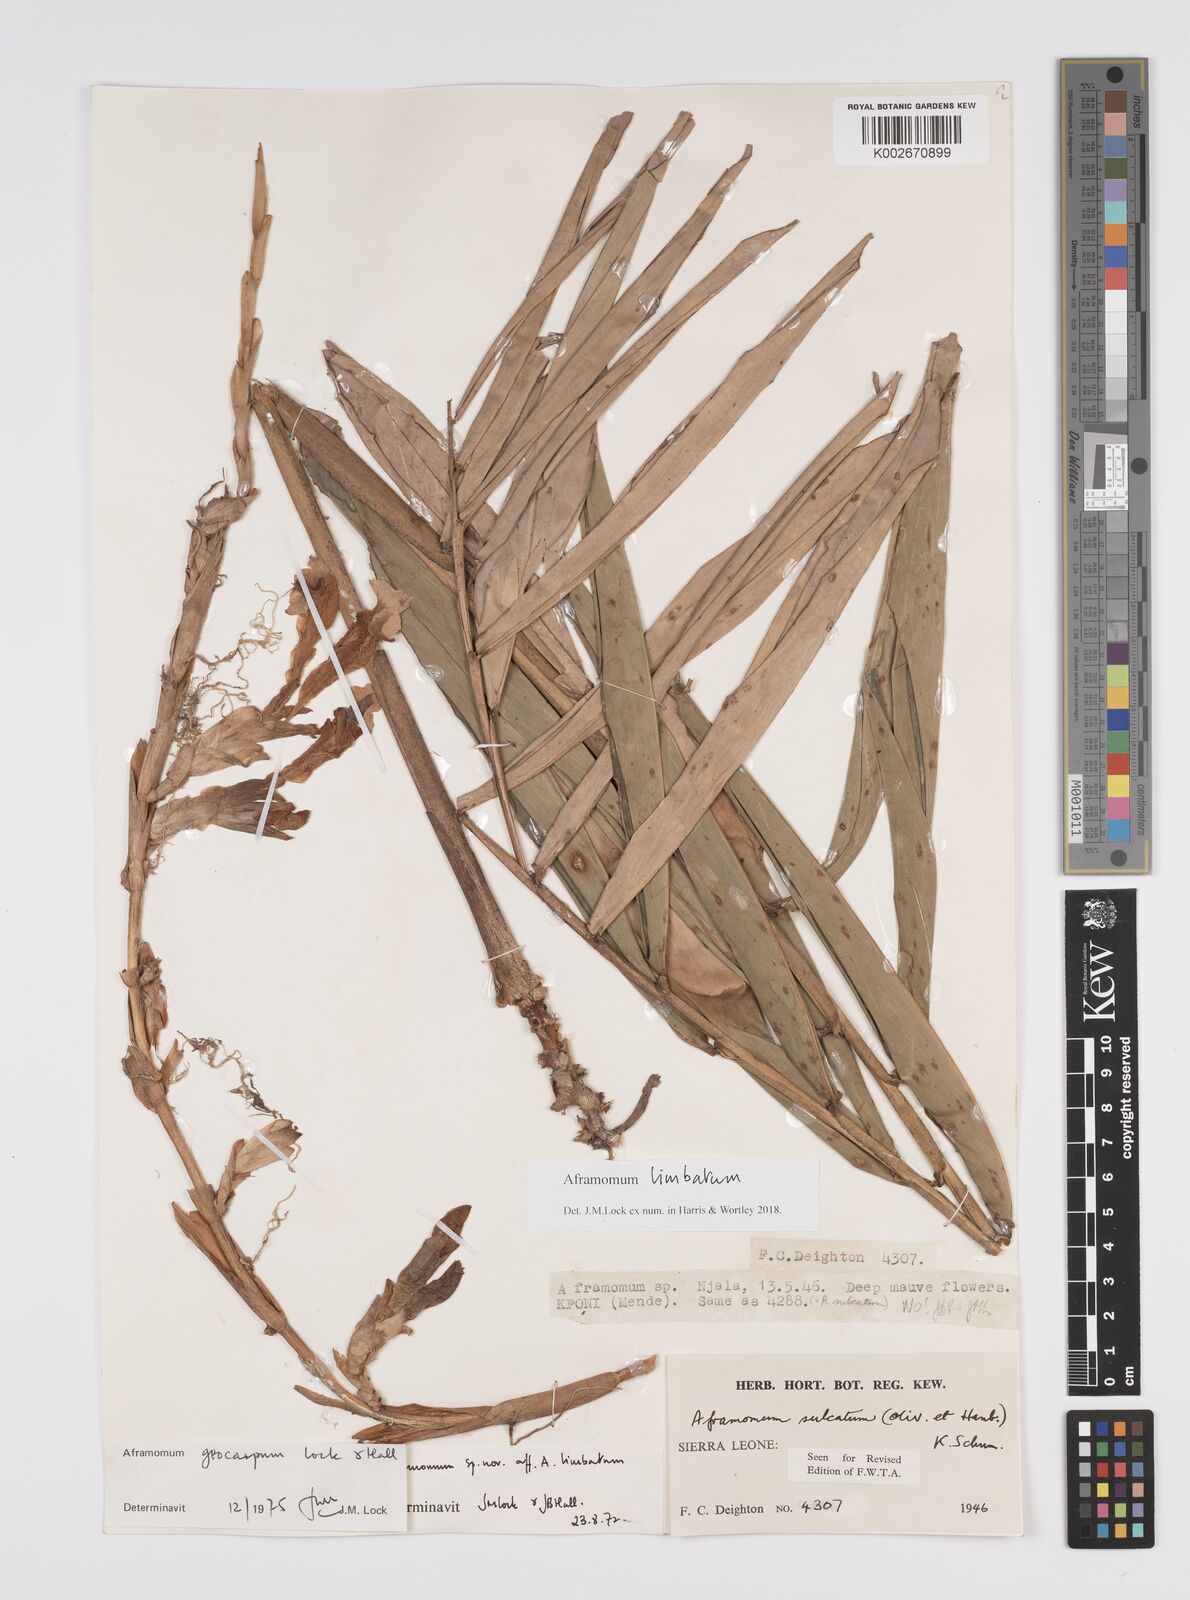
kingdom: Plantae
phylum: Tracheophyta
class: Liliopsida
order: Zingiberales
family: Zingiberaceae
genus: Aframomum
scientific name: Aframomum limbatum
